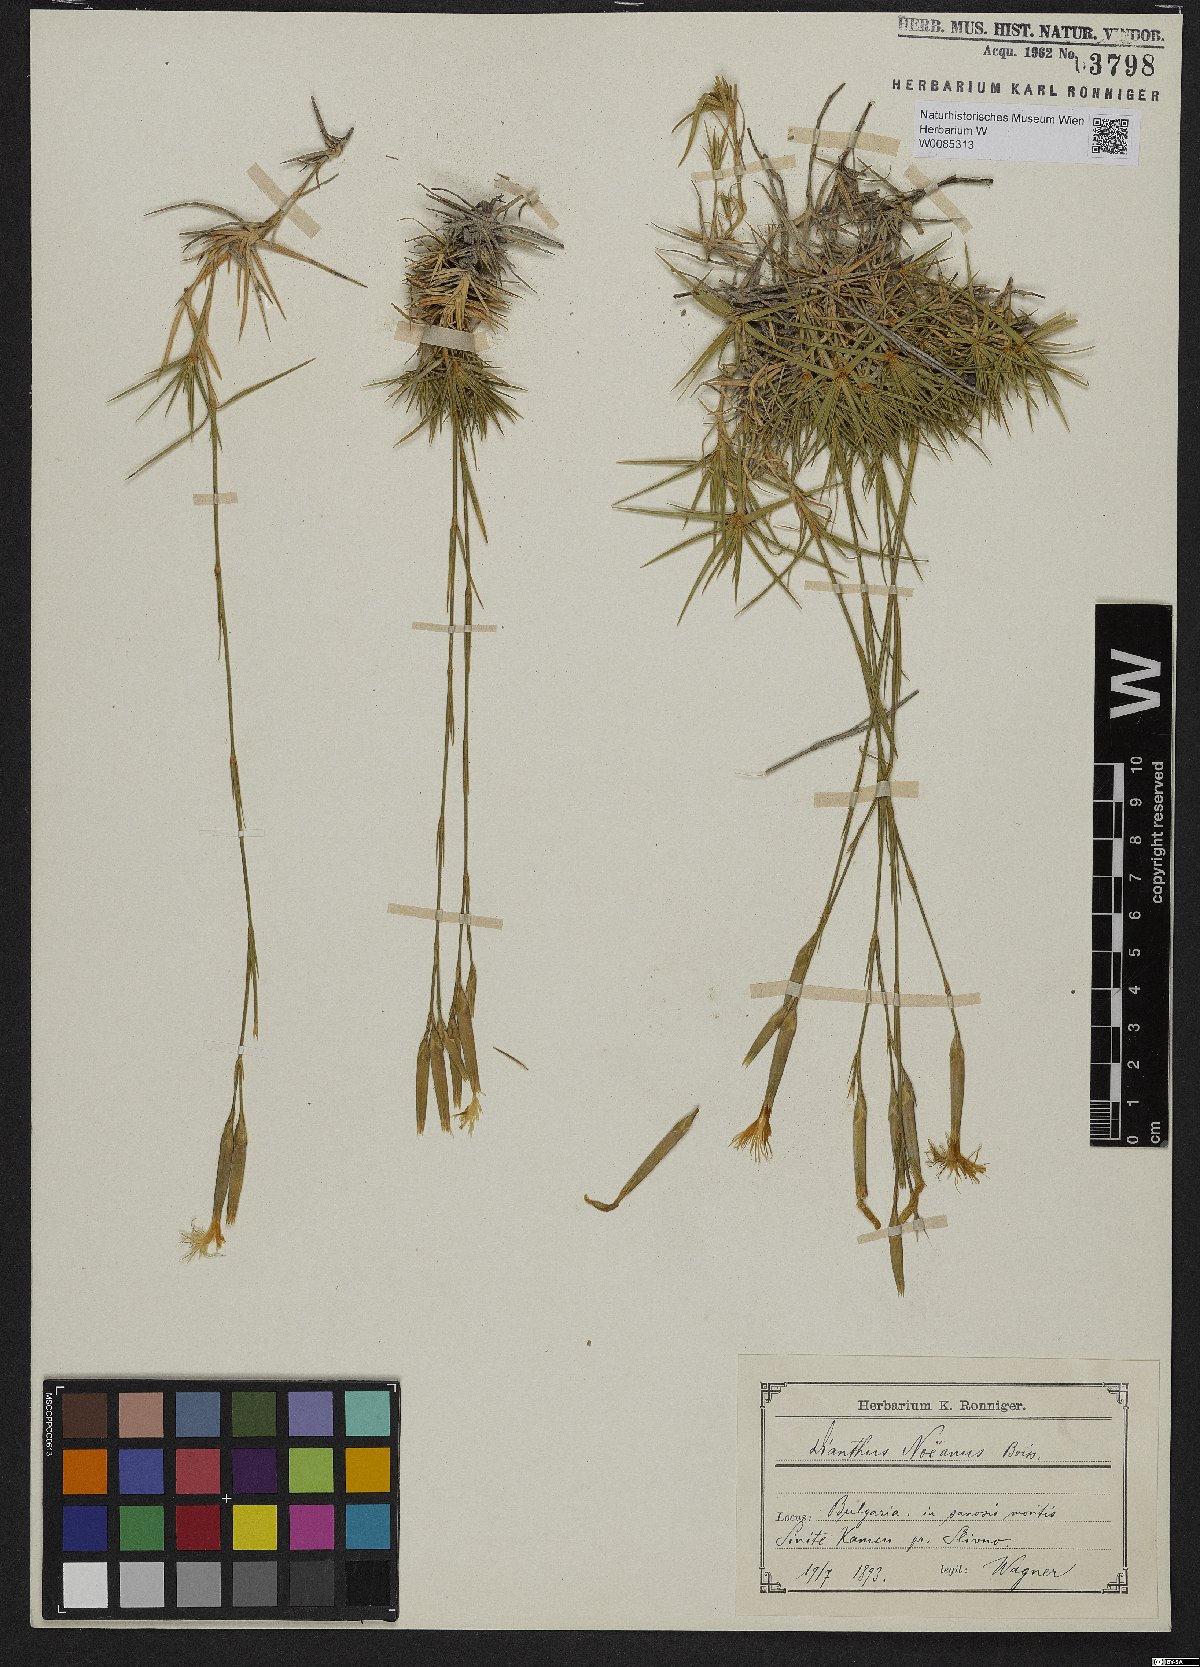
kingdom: Plantae
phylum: Tracheophyta
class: Magnoliopsida
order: Caryophyllales
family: Caryophyllaceae
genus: Dianthus
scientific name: Dianthus petraeus
